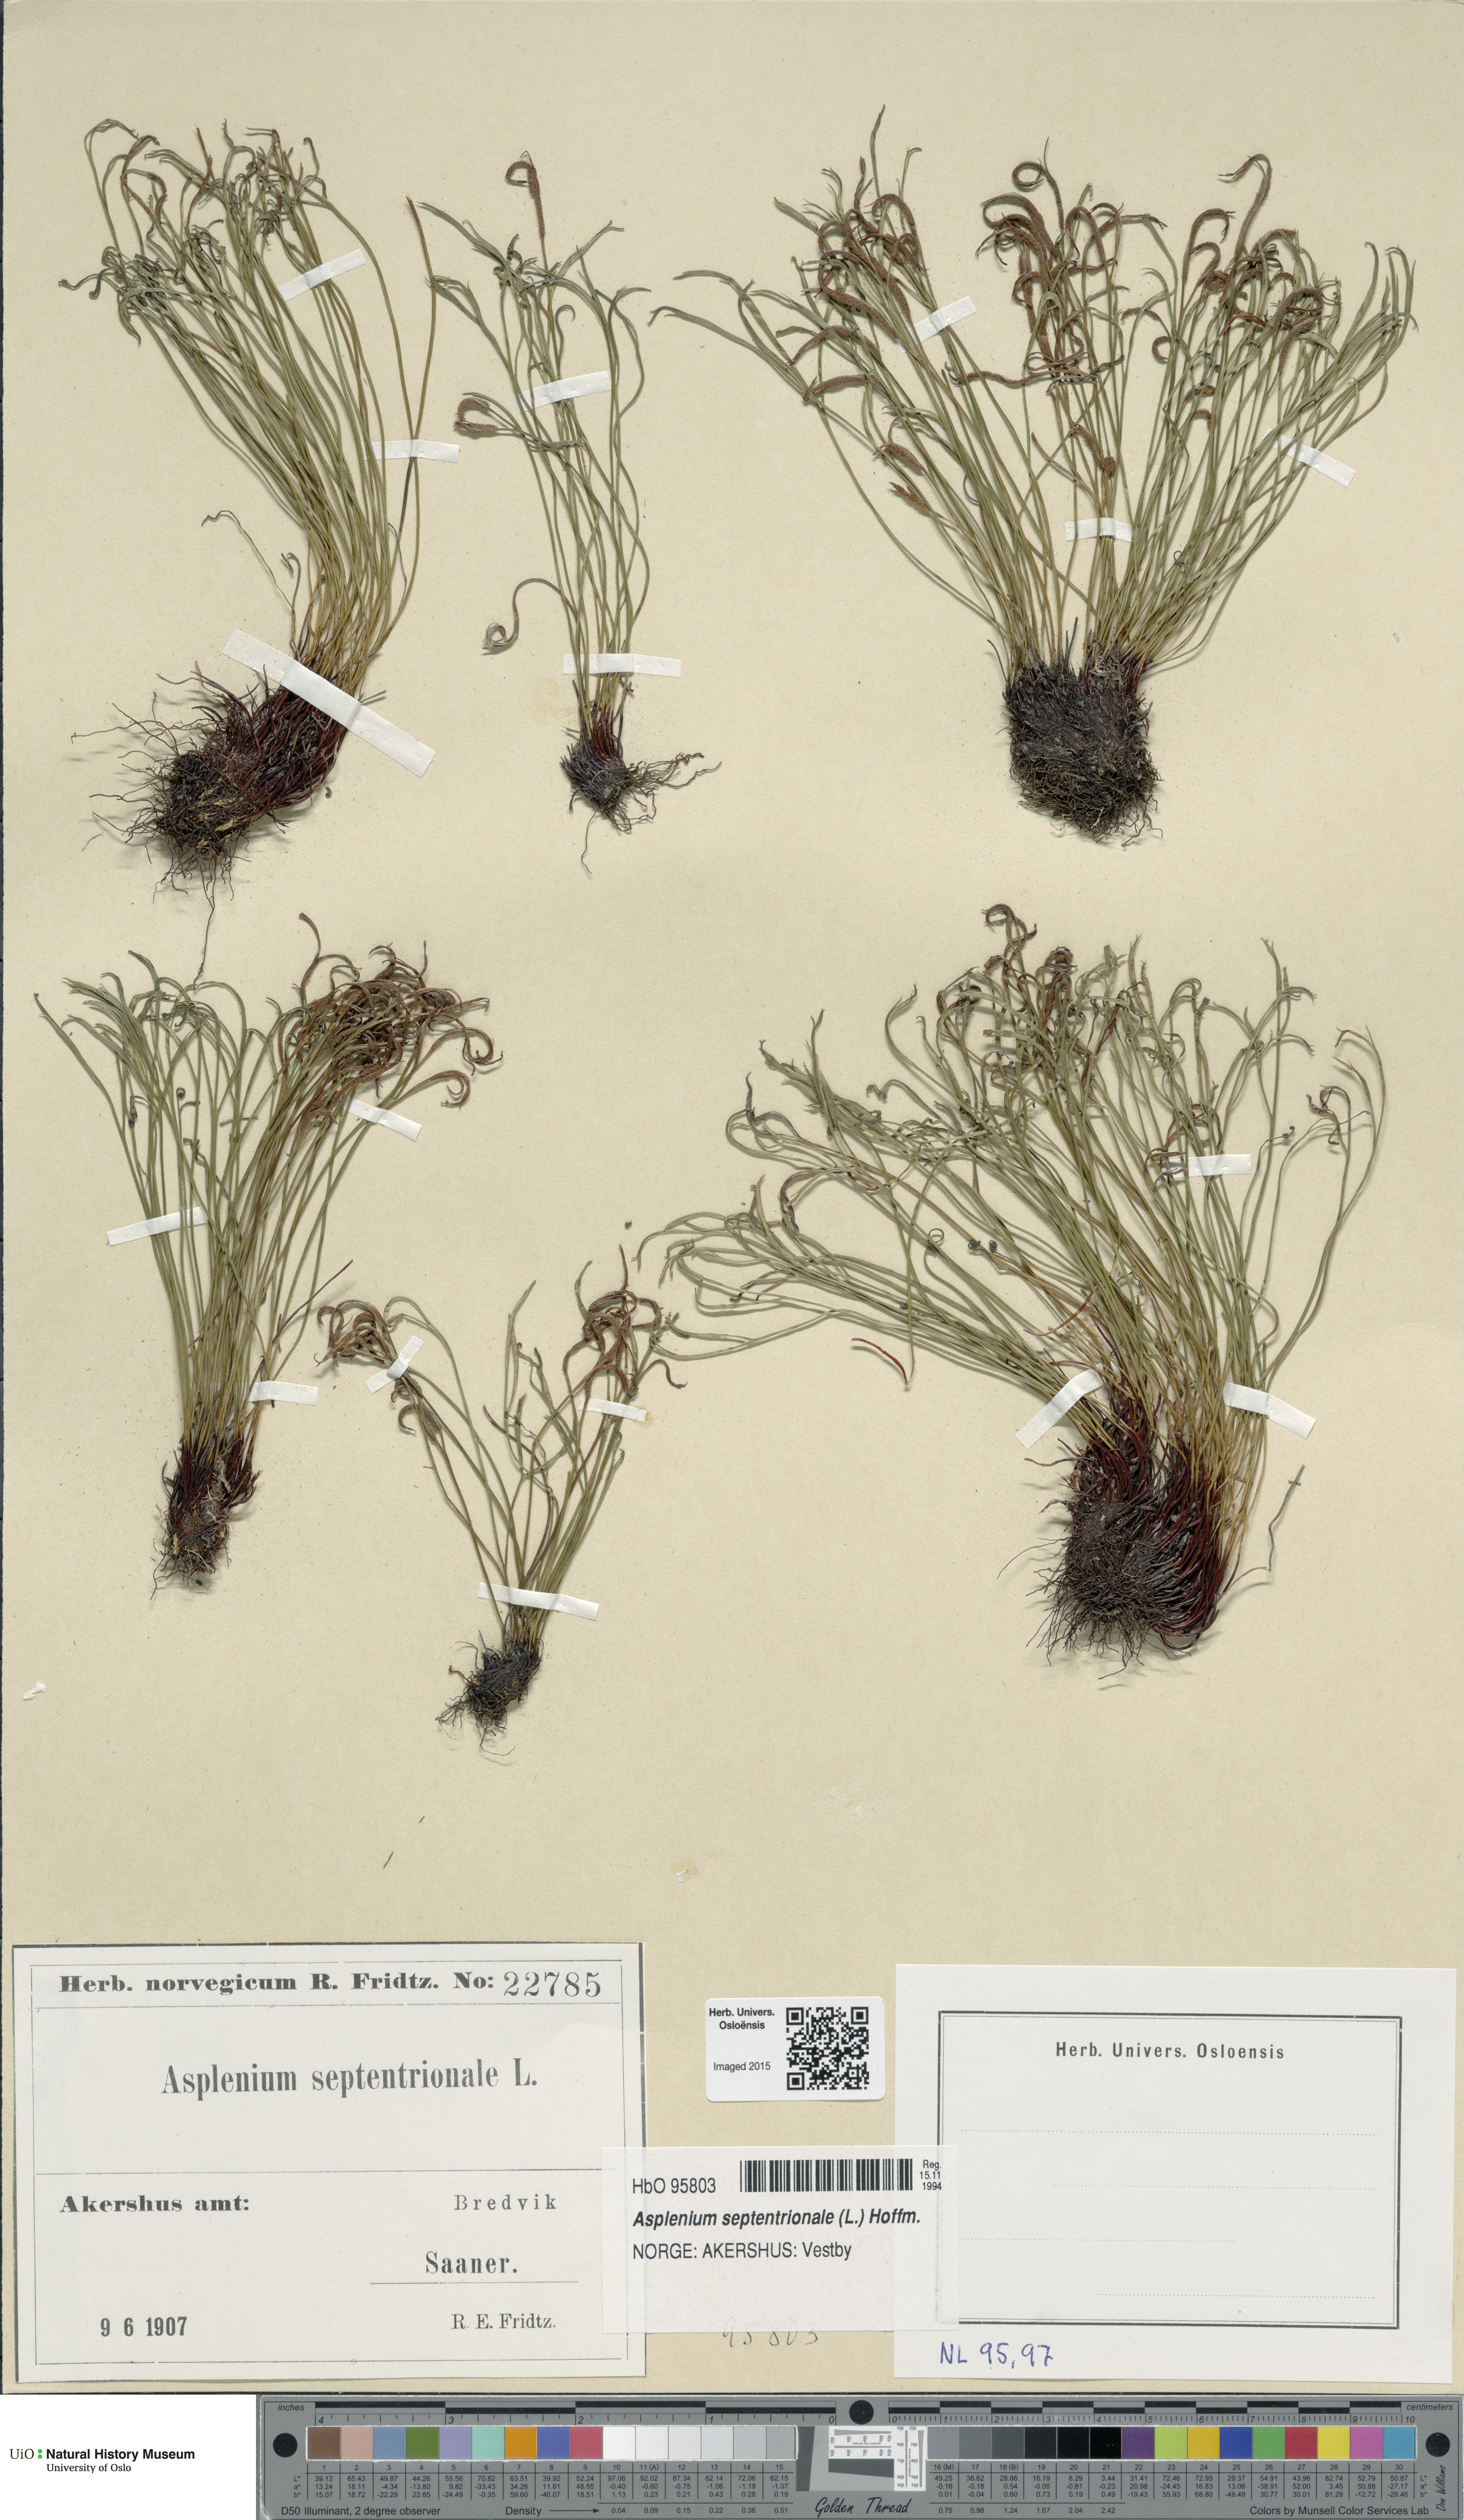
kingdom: Plantae
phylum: Tracheophyta
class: Polypodiopsida
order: Polypodiales
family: Aspleniaceae
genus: Asplenium
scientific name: Asplenium septentrionale
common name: Forked spleenwort
